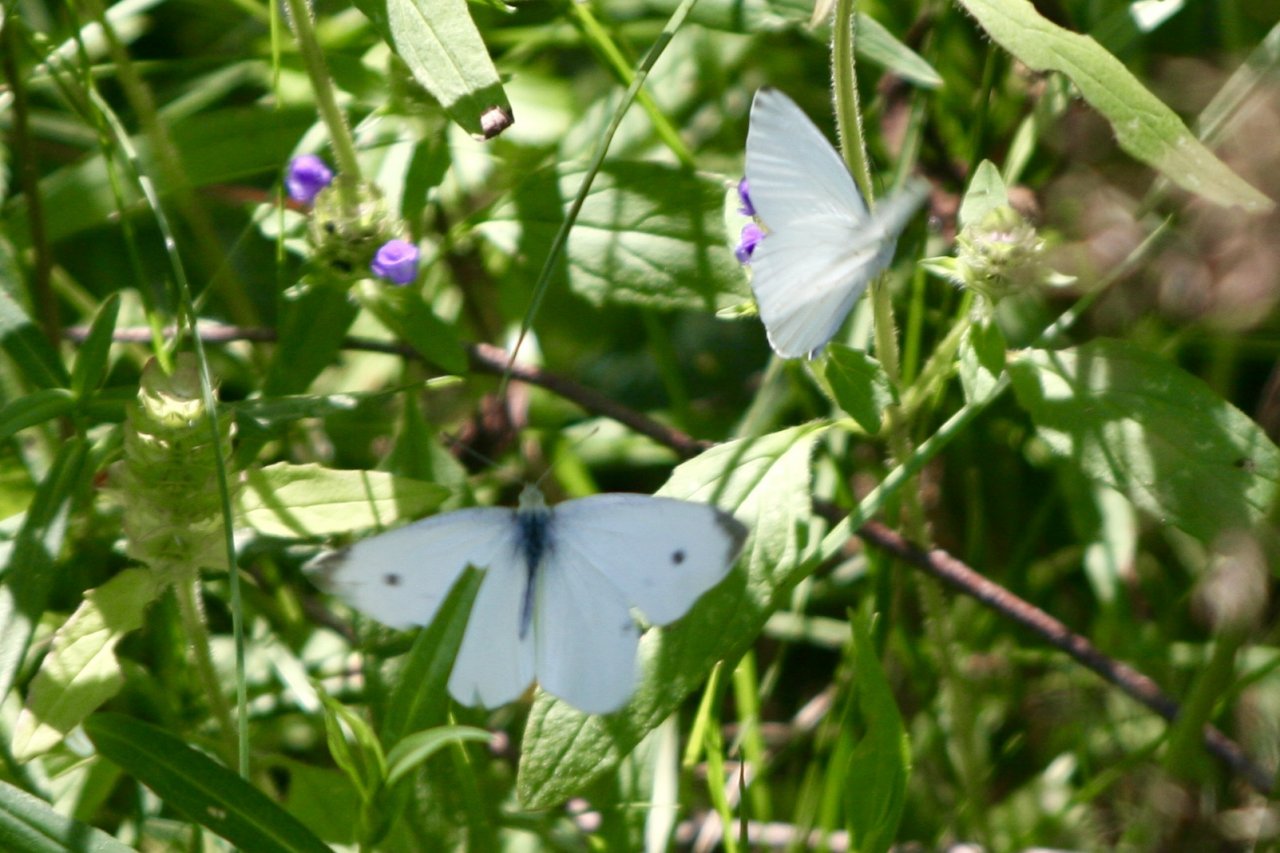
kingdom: Animalia
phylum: Arthropoda
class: Insecta
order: Lepidoptera
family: Pieridae
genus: Pieris
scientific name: Pieris rapae
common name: Cabbage White
